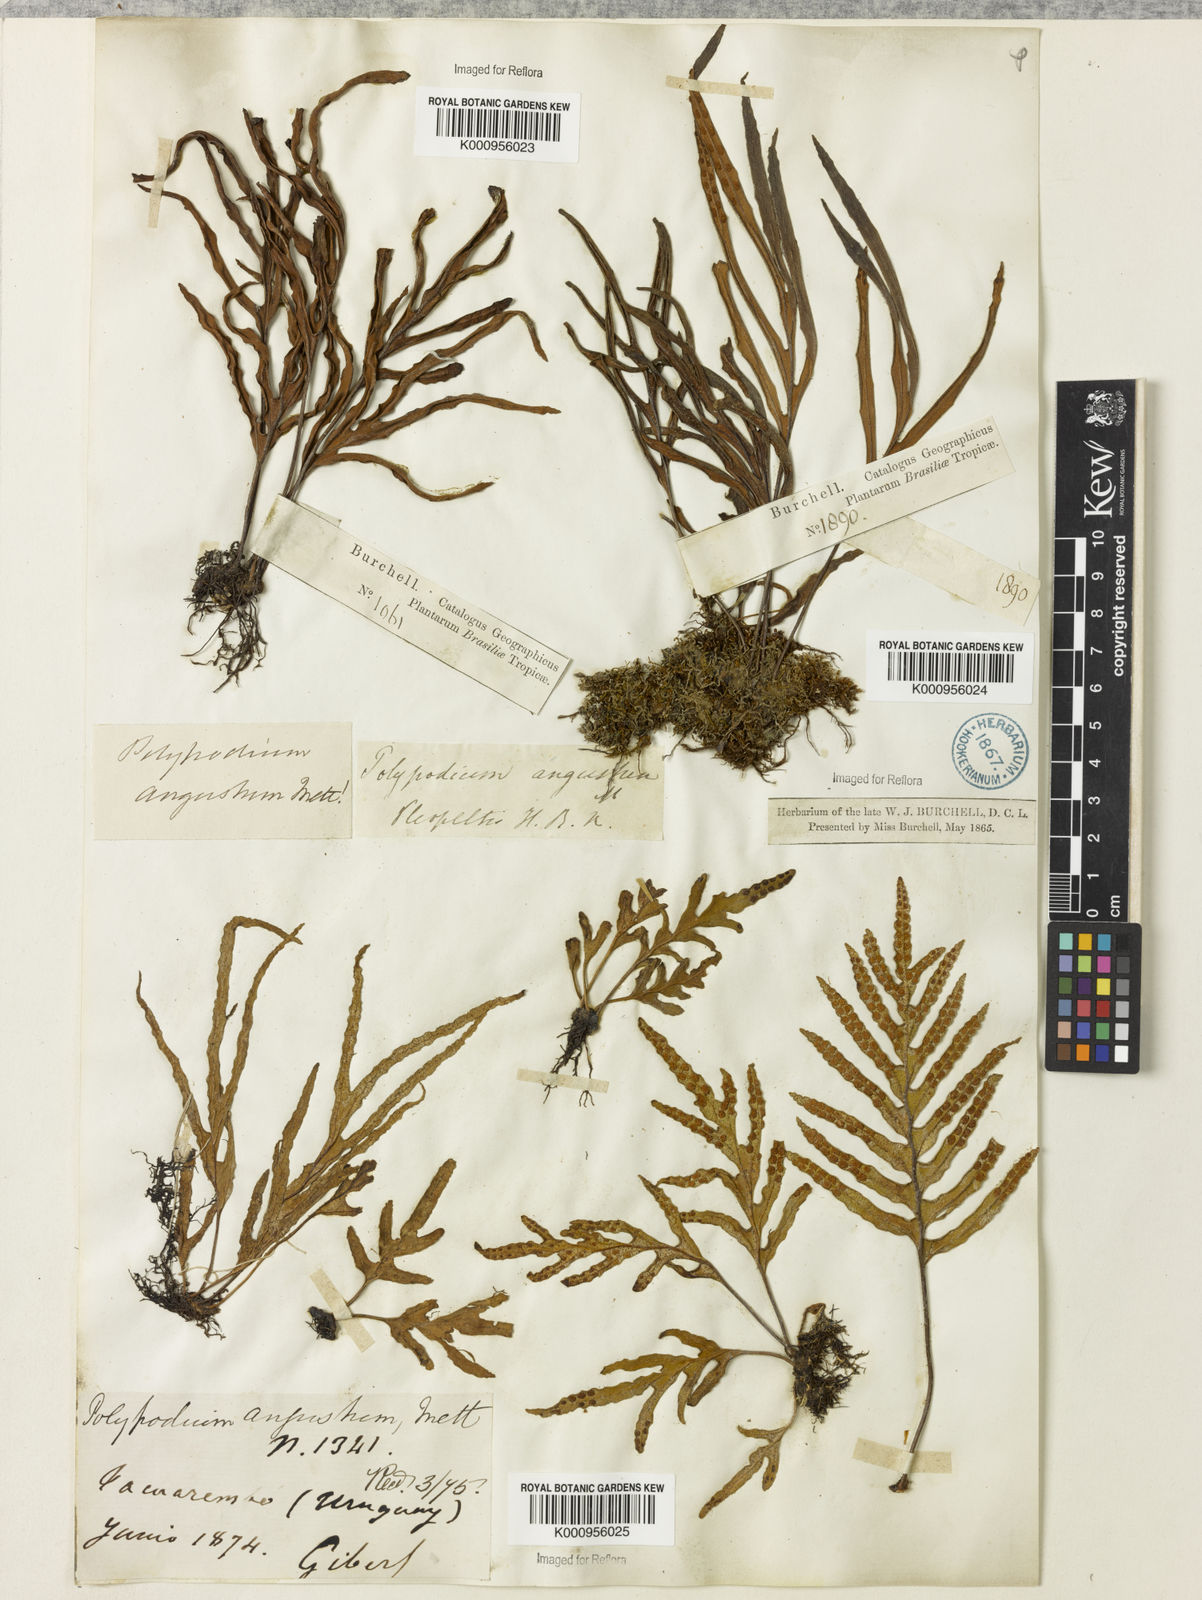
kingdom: Plantae
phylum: Tracheophyta
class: Polypodiopsida
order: Polypodiales
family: Polypodiaceae
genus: Pleopeltis
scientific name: Pleopeltis angusta
